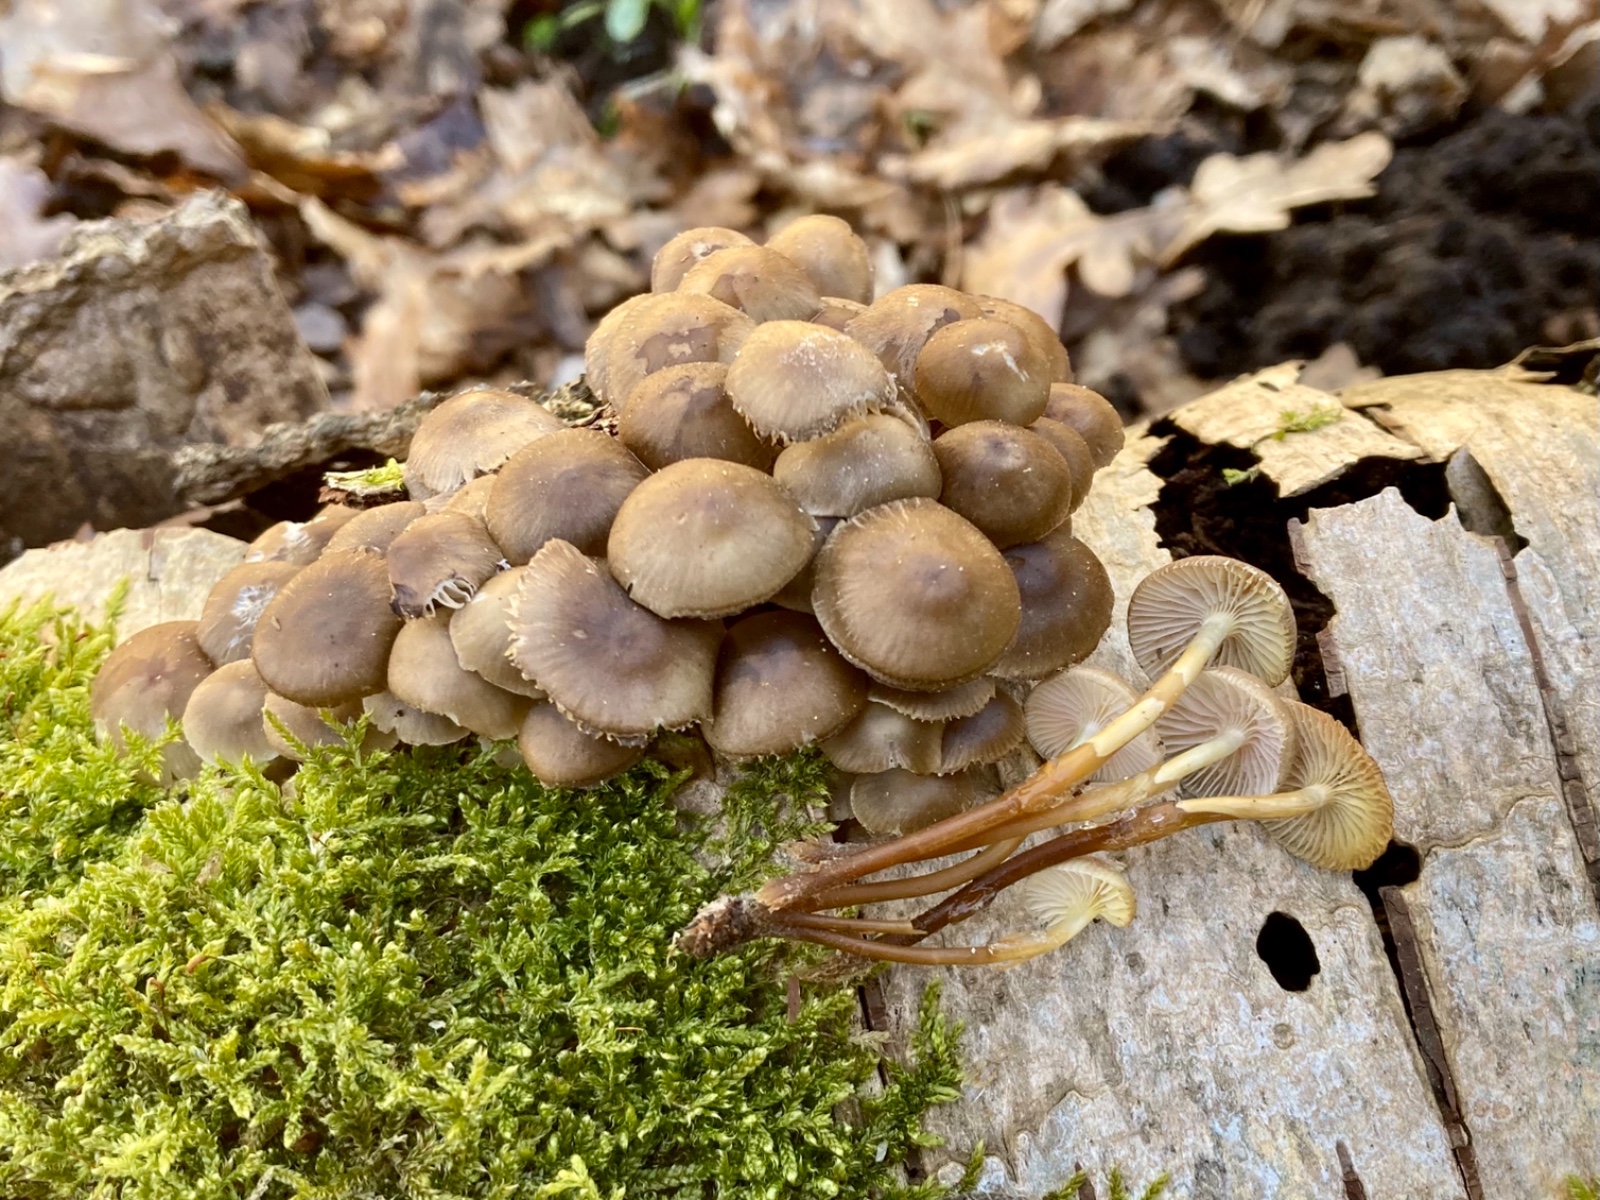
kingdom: Fungi
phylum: Basidiomycota
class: Agaricomycetes
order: Agaricales
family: Mycenaceae
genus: Mycena
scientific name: Mycena tintinnabulum
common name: vinter-huesvamp
